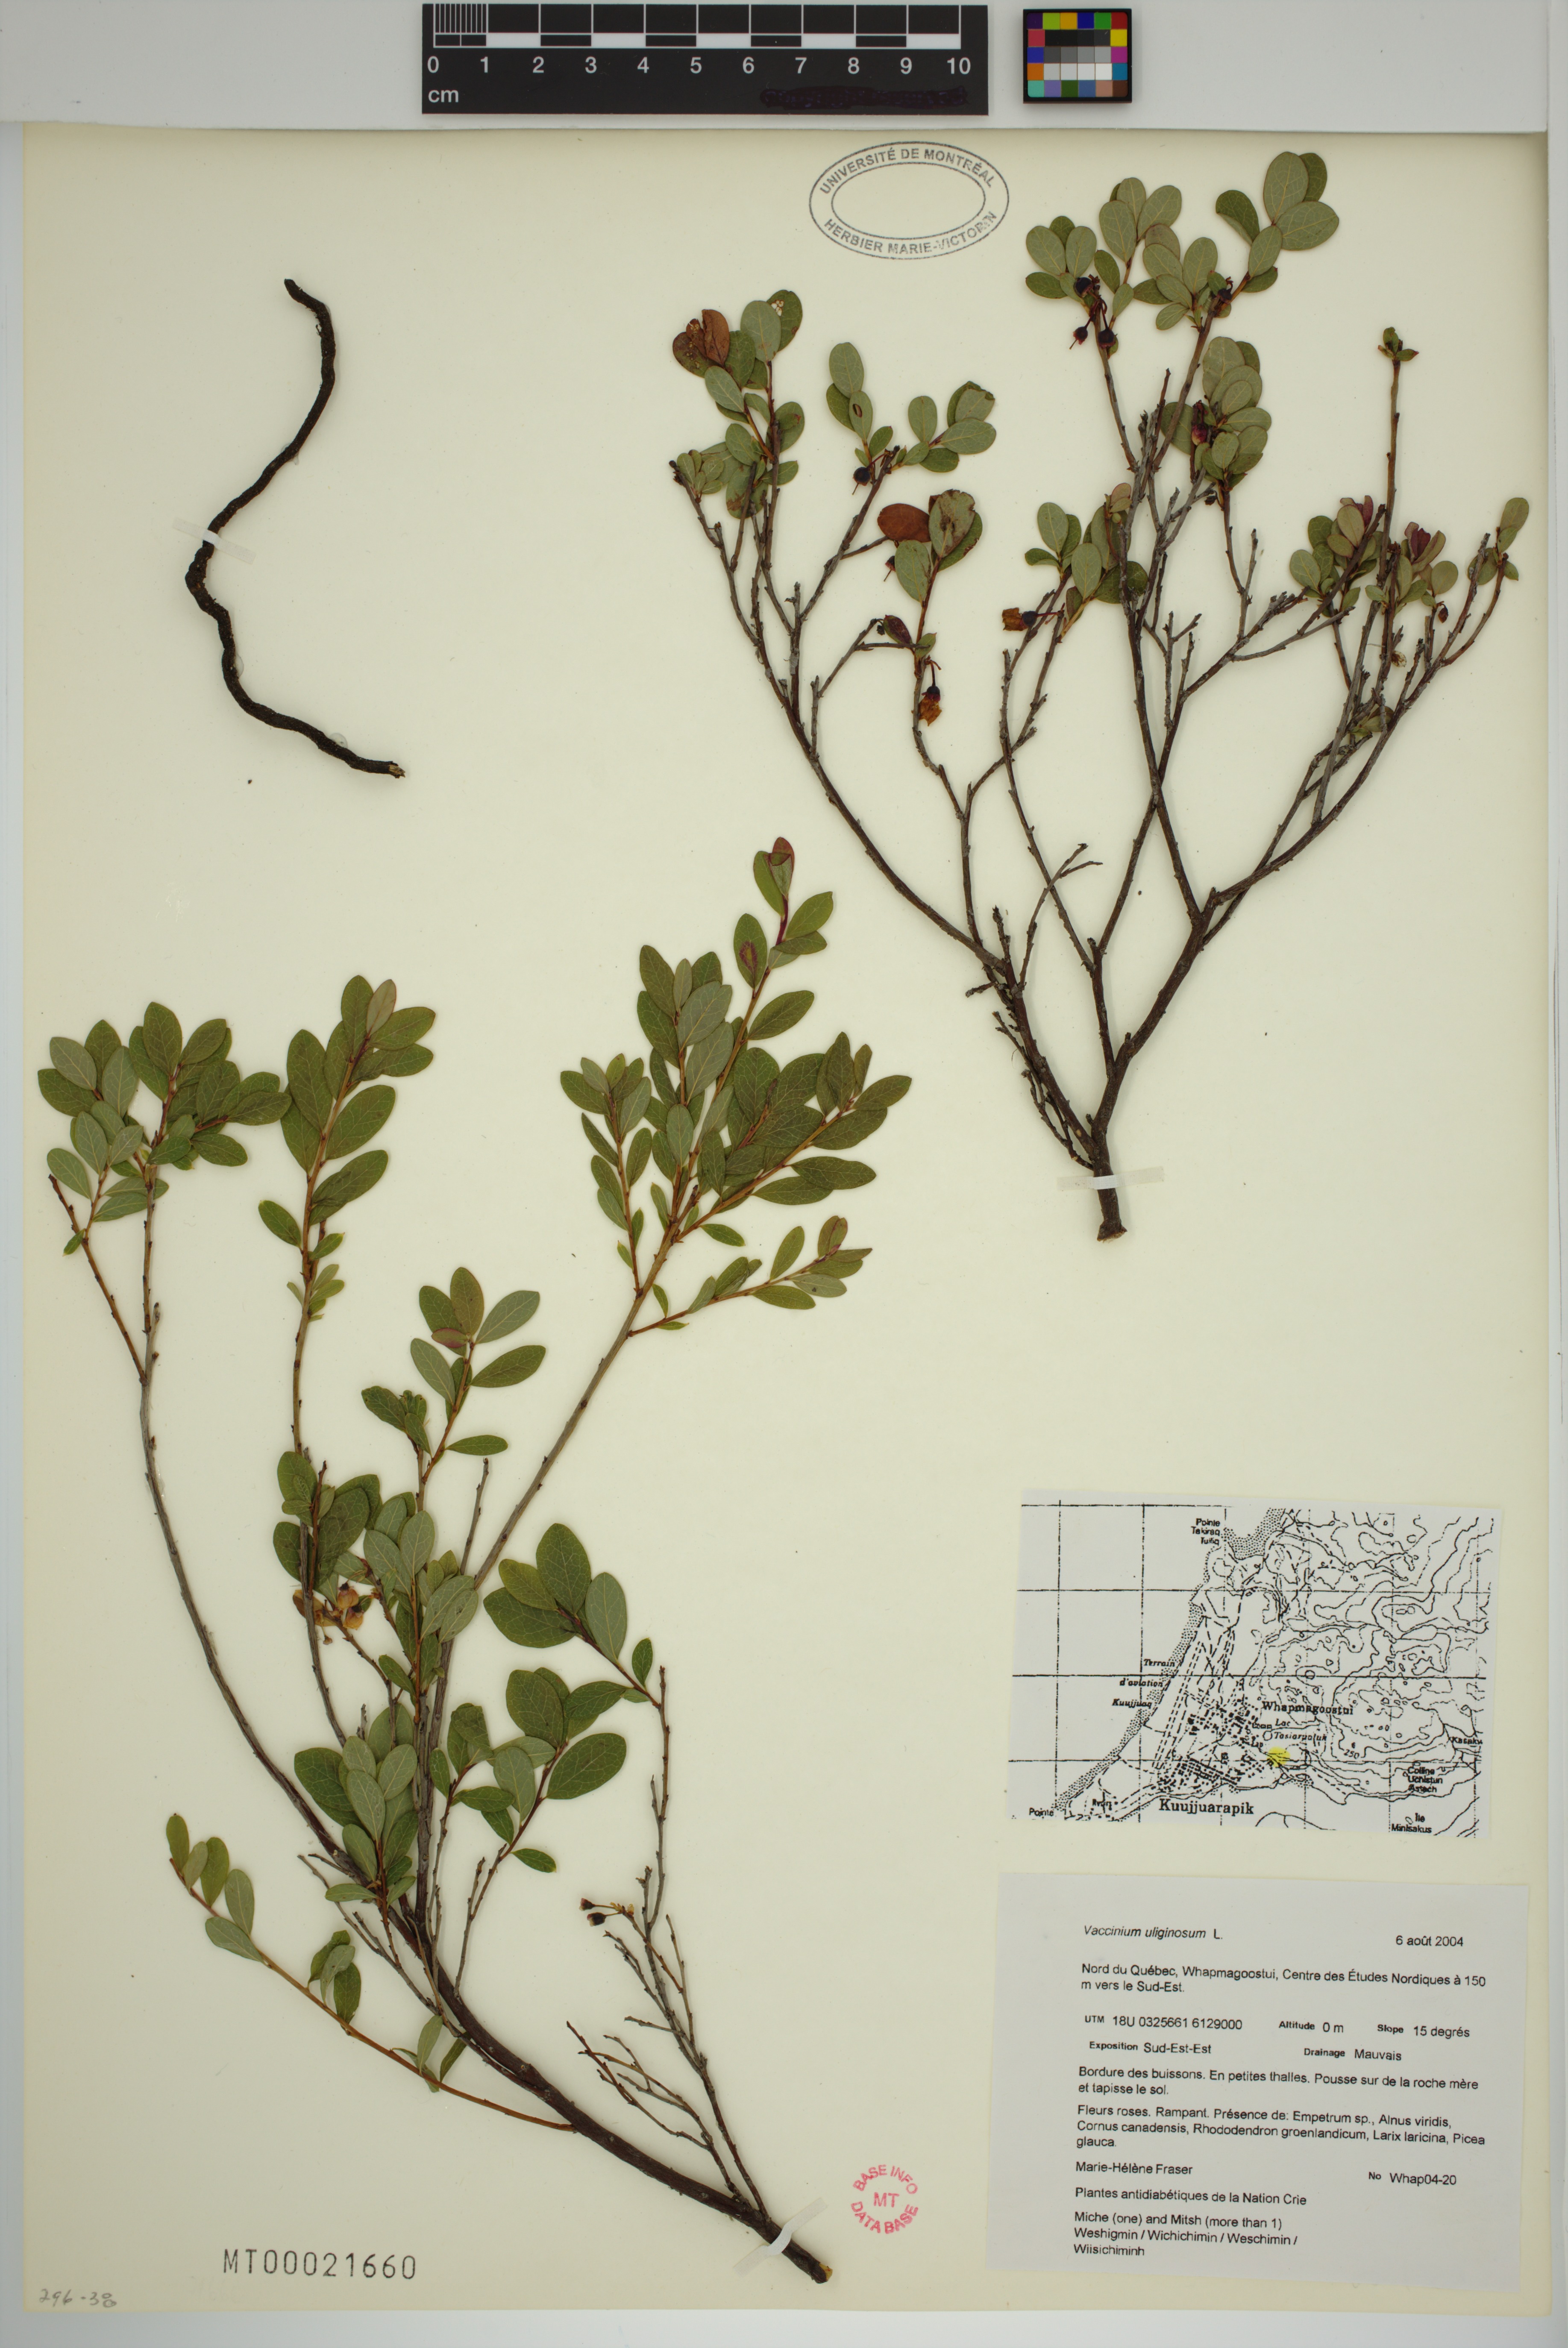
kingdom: Plantae
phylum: Tracheophyta
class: Magnoliopsida
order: Ericales
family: Ericaceae
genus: Vaccinium
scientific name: Vaccinium uliginosum
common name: Bog bilberry
